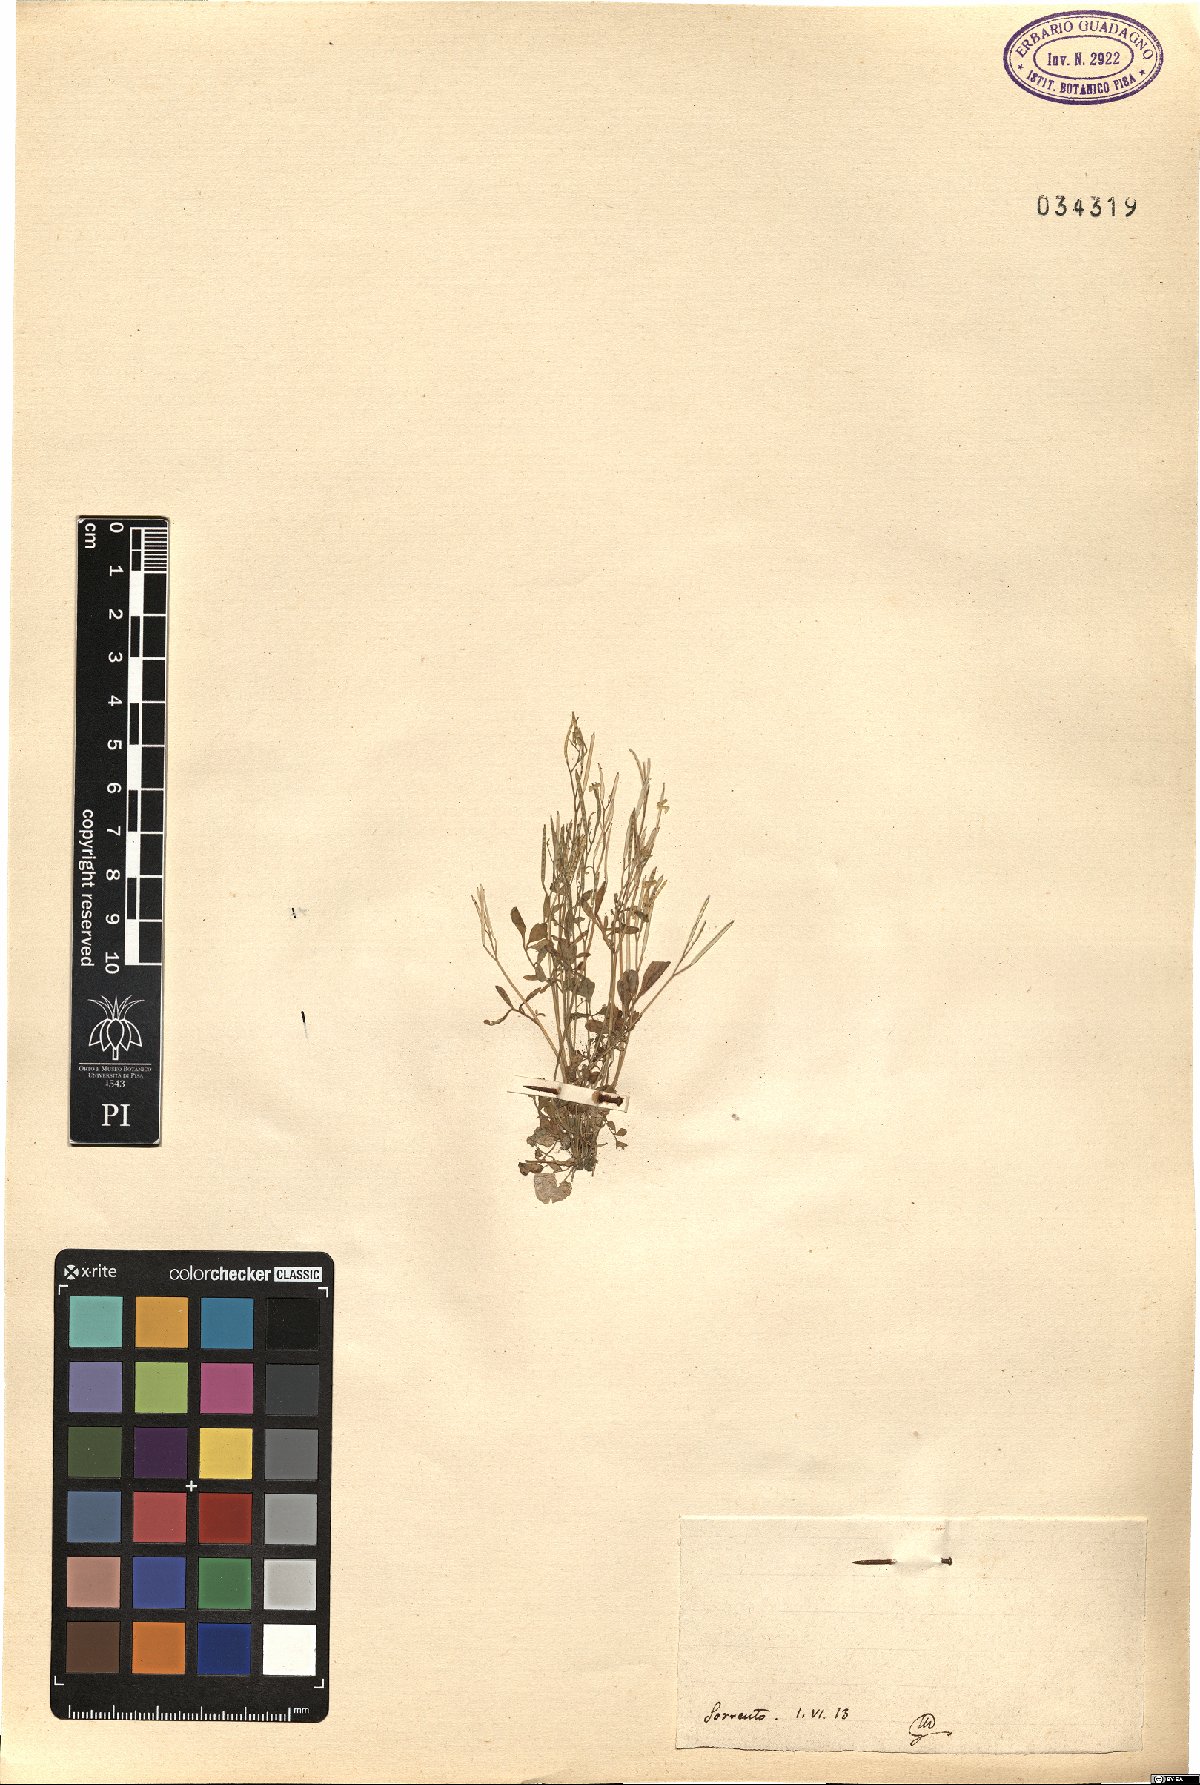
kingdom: Plantae
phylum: Tracheophyta
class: Magnoliopsida
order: Brassicales
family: Brassicaceae
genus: Cardamine
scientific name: Cardamine
